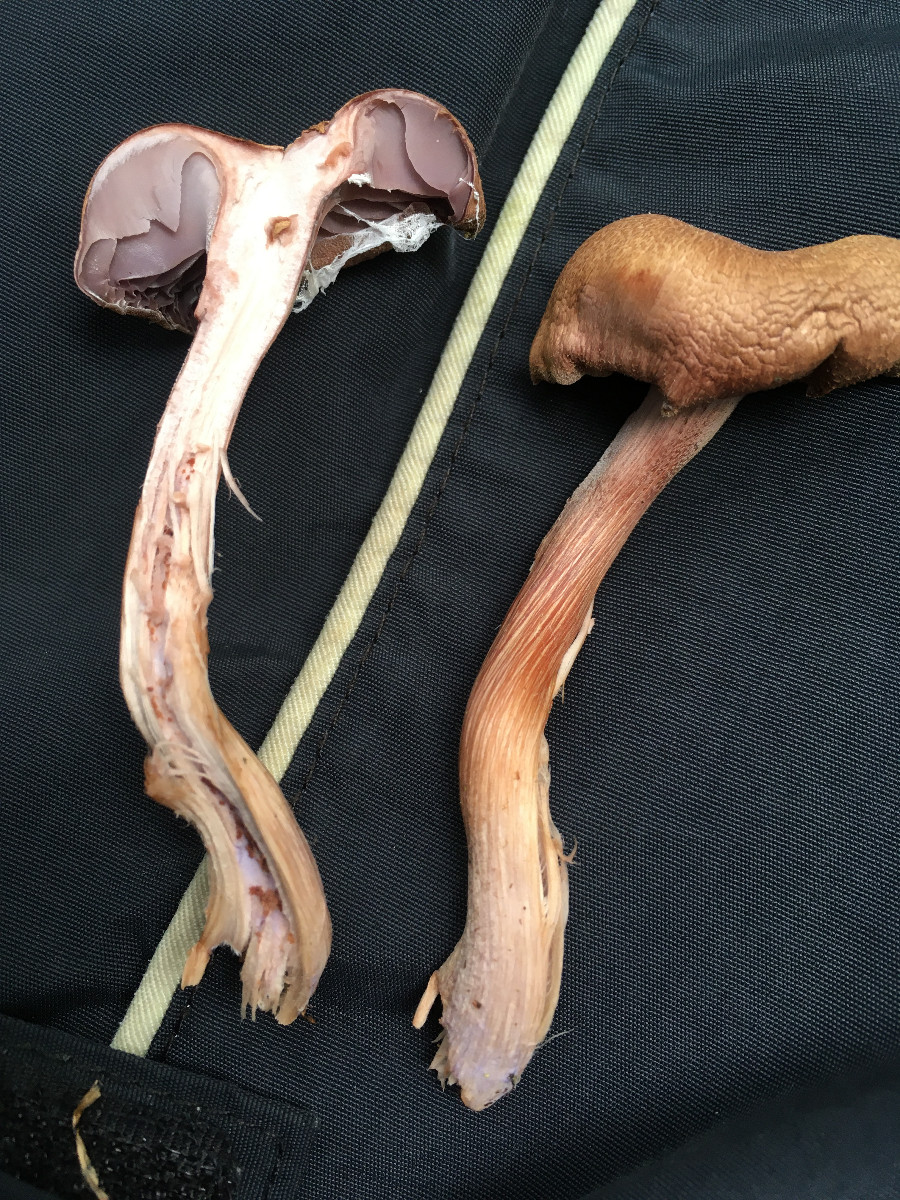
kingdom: Fungi
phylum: Basidiomycota
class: Agaricomycetes
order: Agaricales
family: Hydnangiaceae
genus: Laccaria
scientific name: Laccaria
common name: ametysthat
